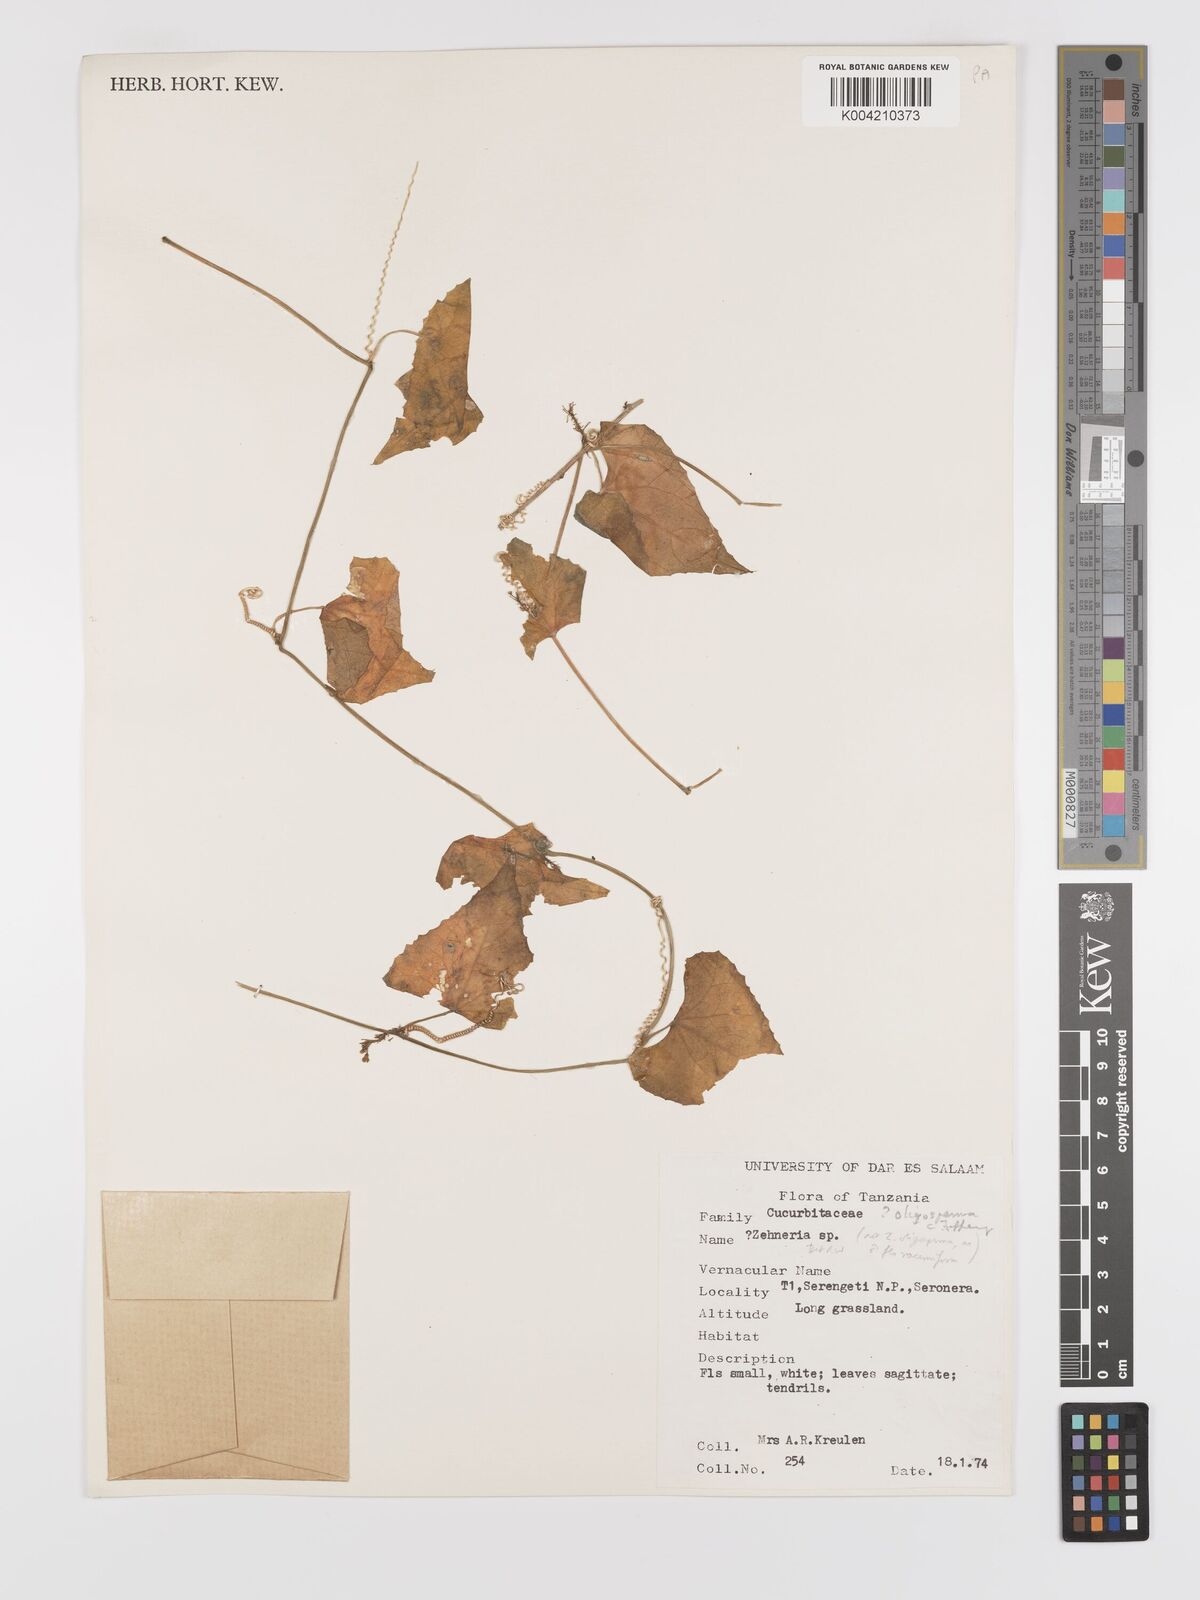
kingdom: Plantae
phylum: Tracheophyta
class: Magnoliopsida
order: Cucurbitales
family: Cucurbitaceae
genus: Zehneria
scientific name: Zehneria oligosperma
